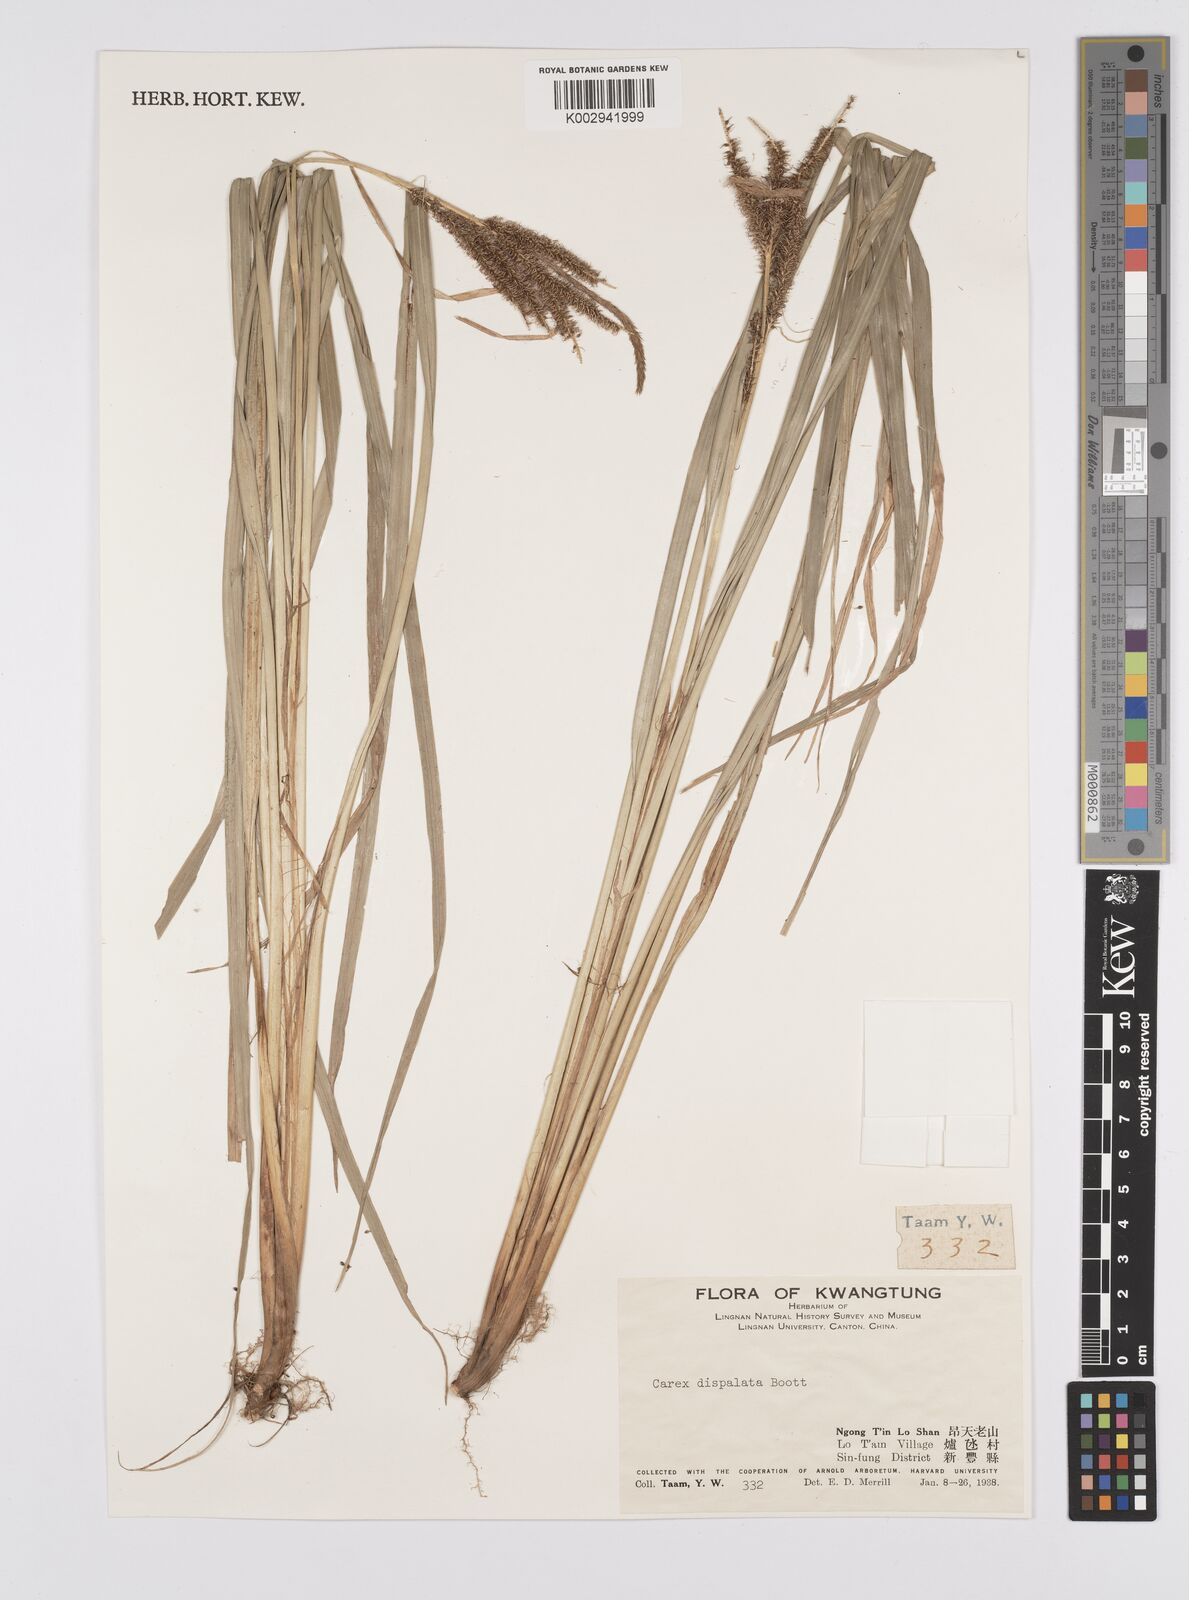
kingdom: Plantae
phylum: Tracheophyta
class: Liliopsida
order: Poales
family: Cyperaceae
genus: Carex
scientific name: Carex dispalata
